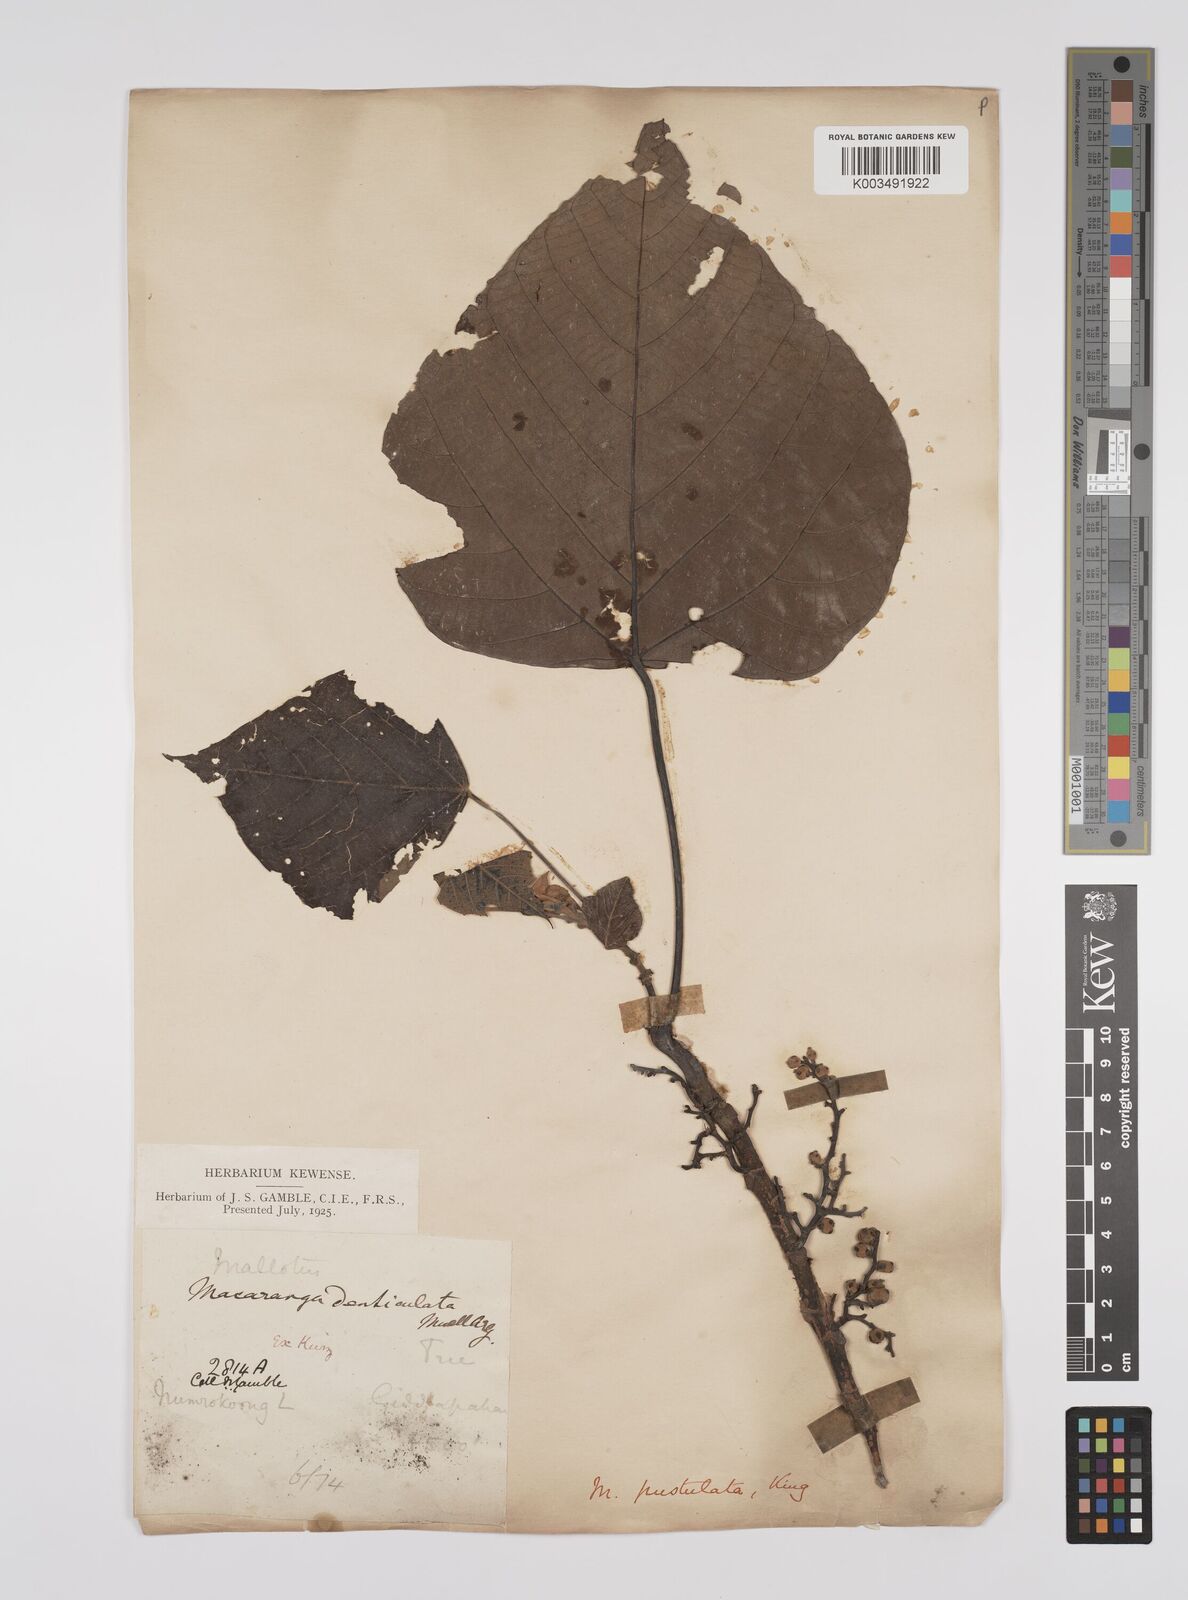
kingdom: Plantae
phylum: Tracheophyta
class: Magnoliopsida
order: Malpighiales
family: Euphorbiaceae
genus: Macaranga
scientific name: Macaranga denticulata
